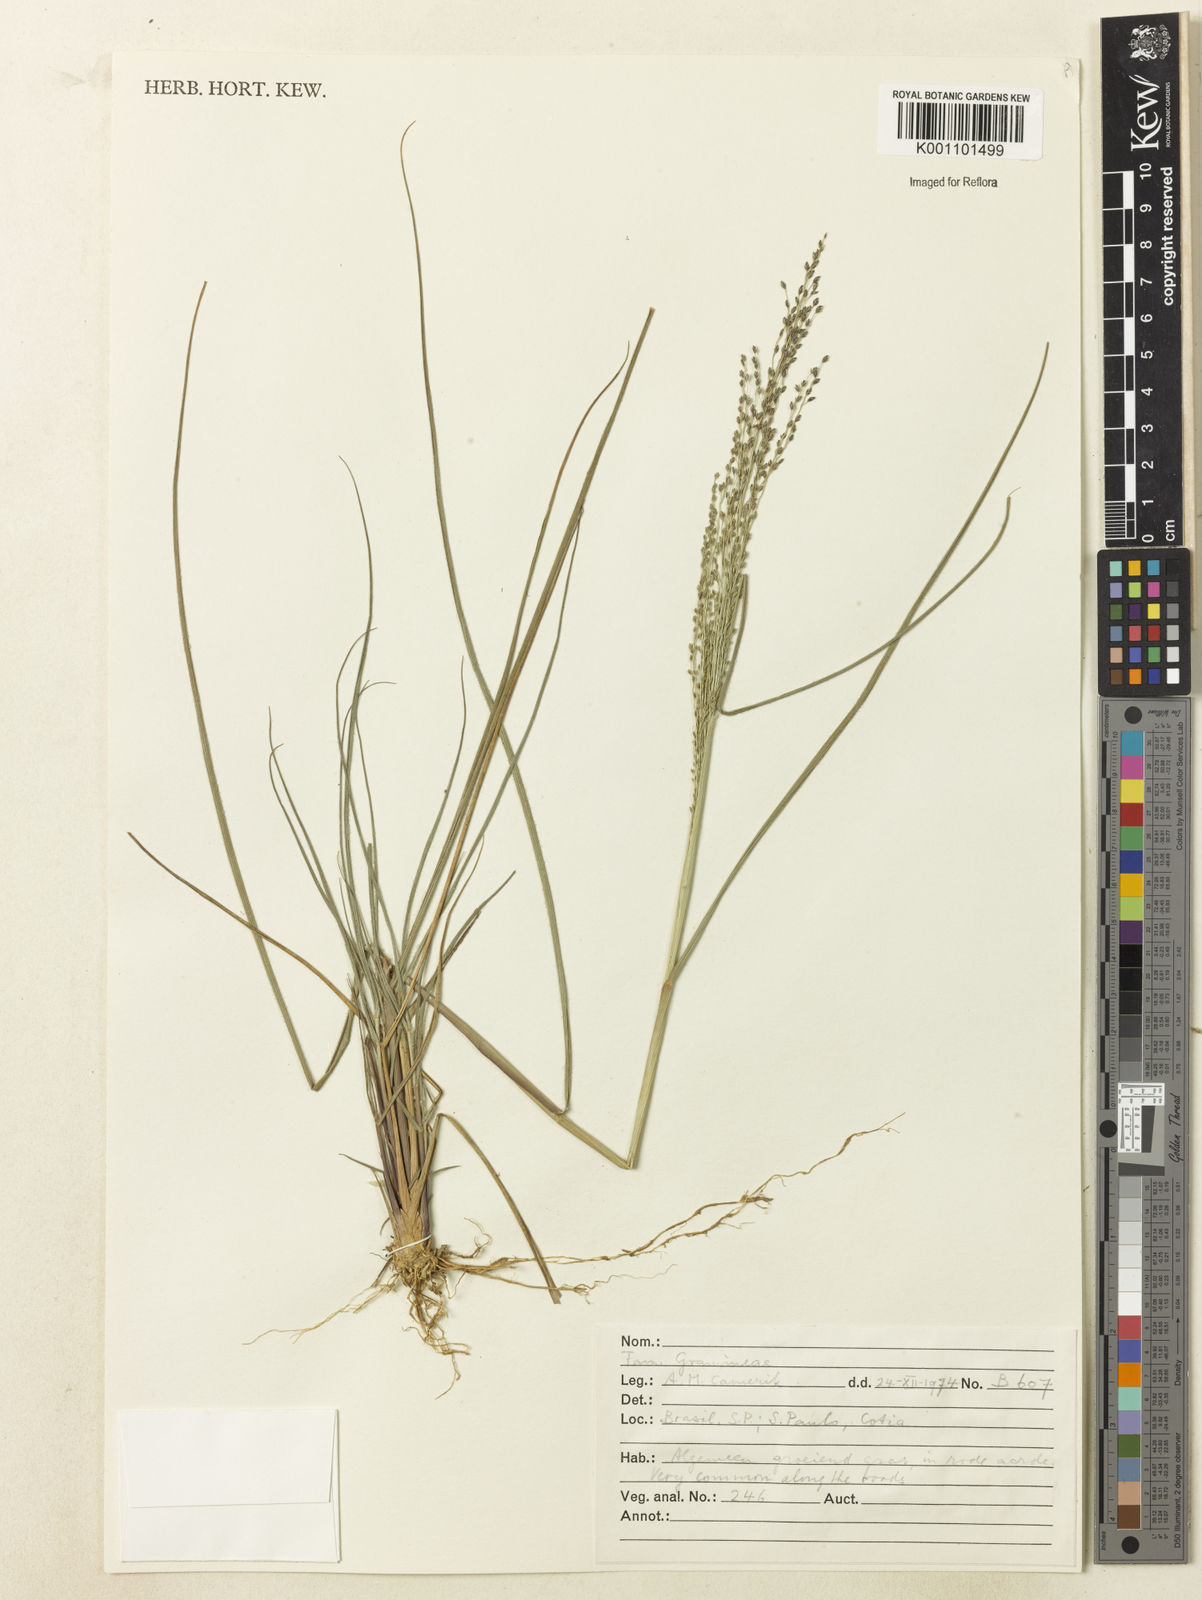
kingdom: Plantae
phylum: Tracheophyta
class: Liliopsida
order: Poales
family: Poaceae
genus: Eragrostis
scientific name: Eragrostis seminuda
